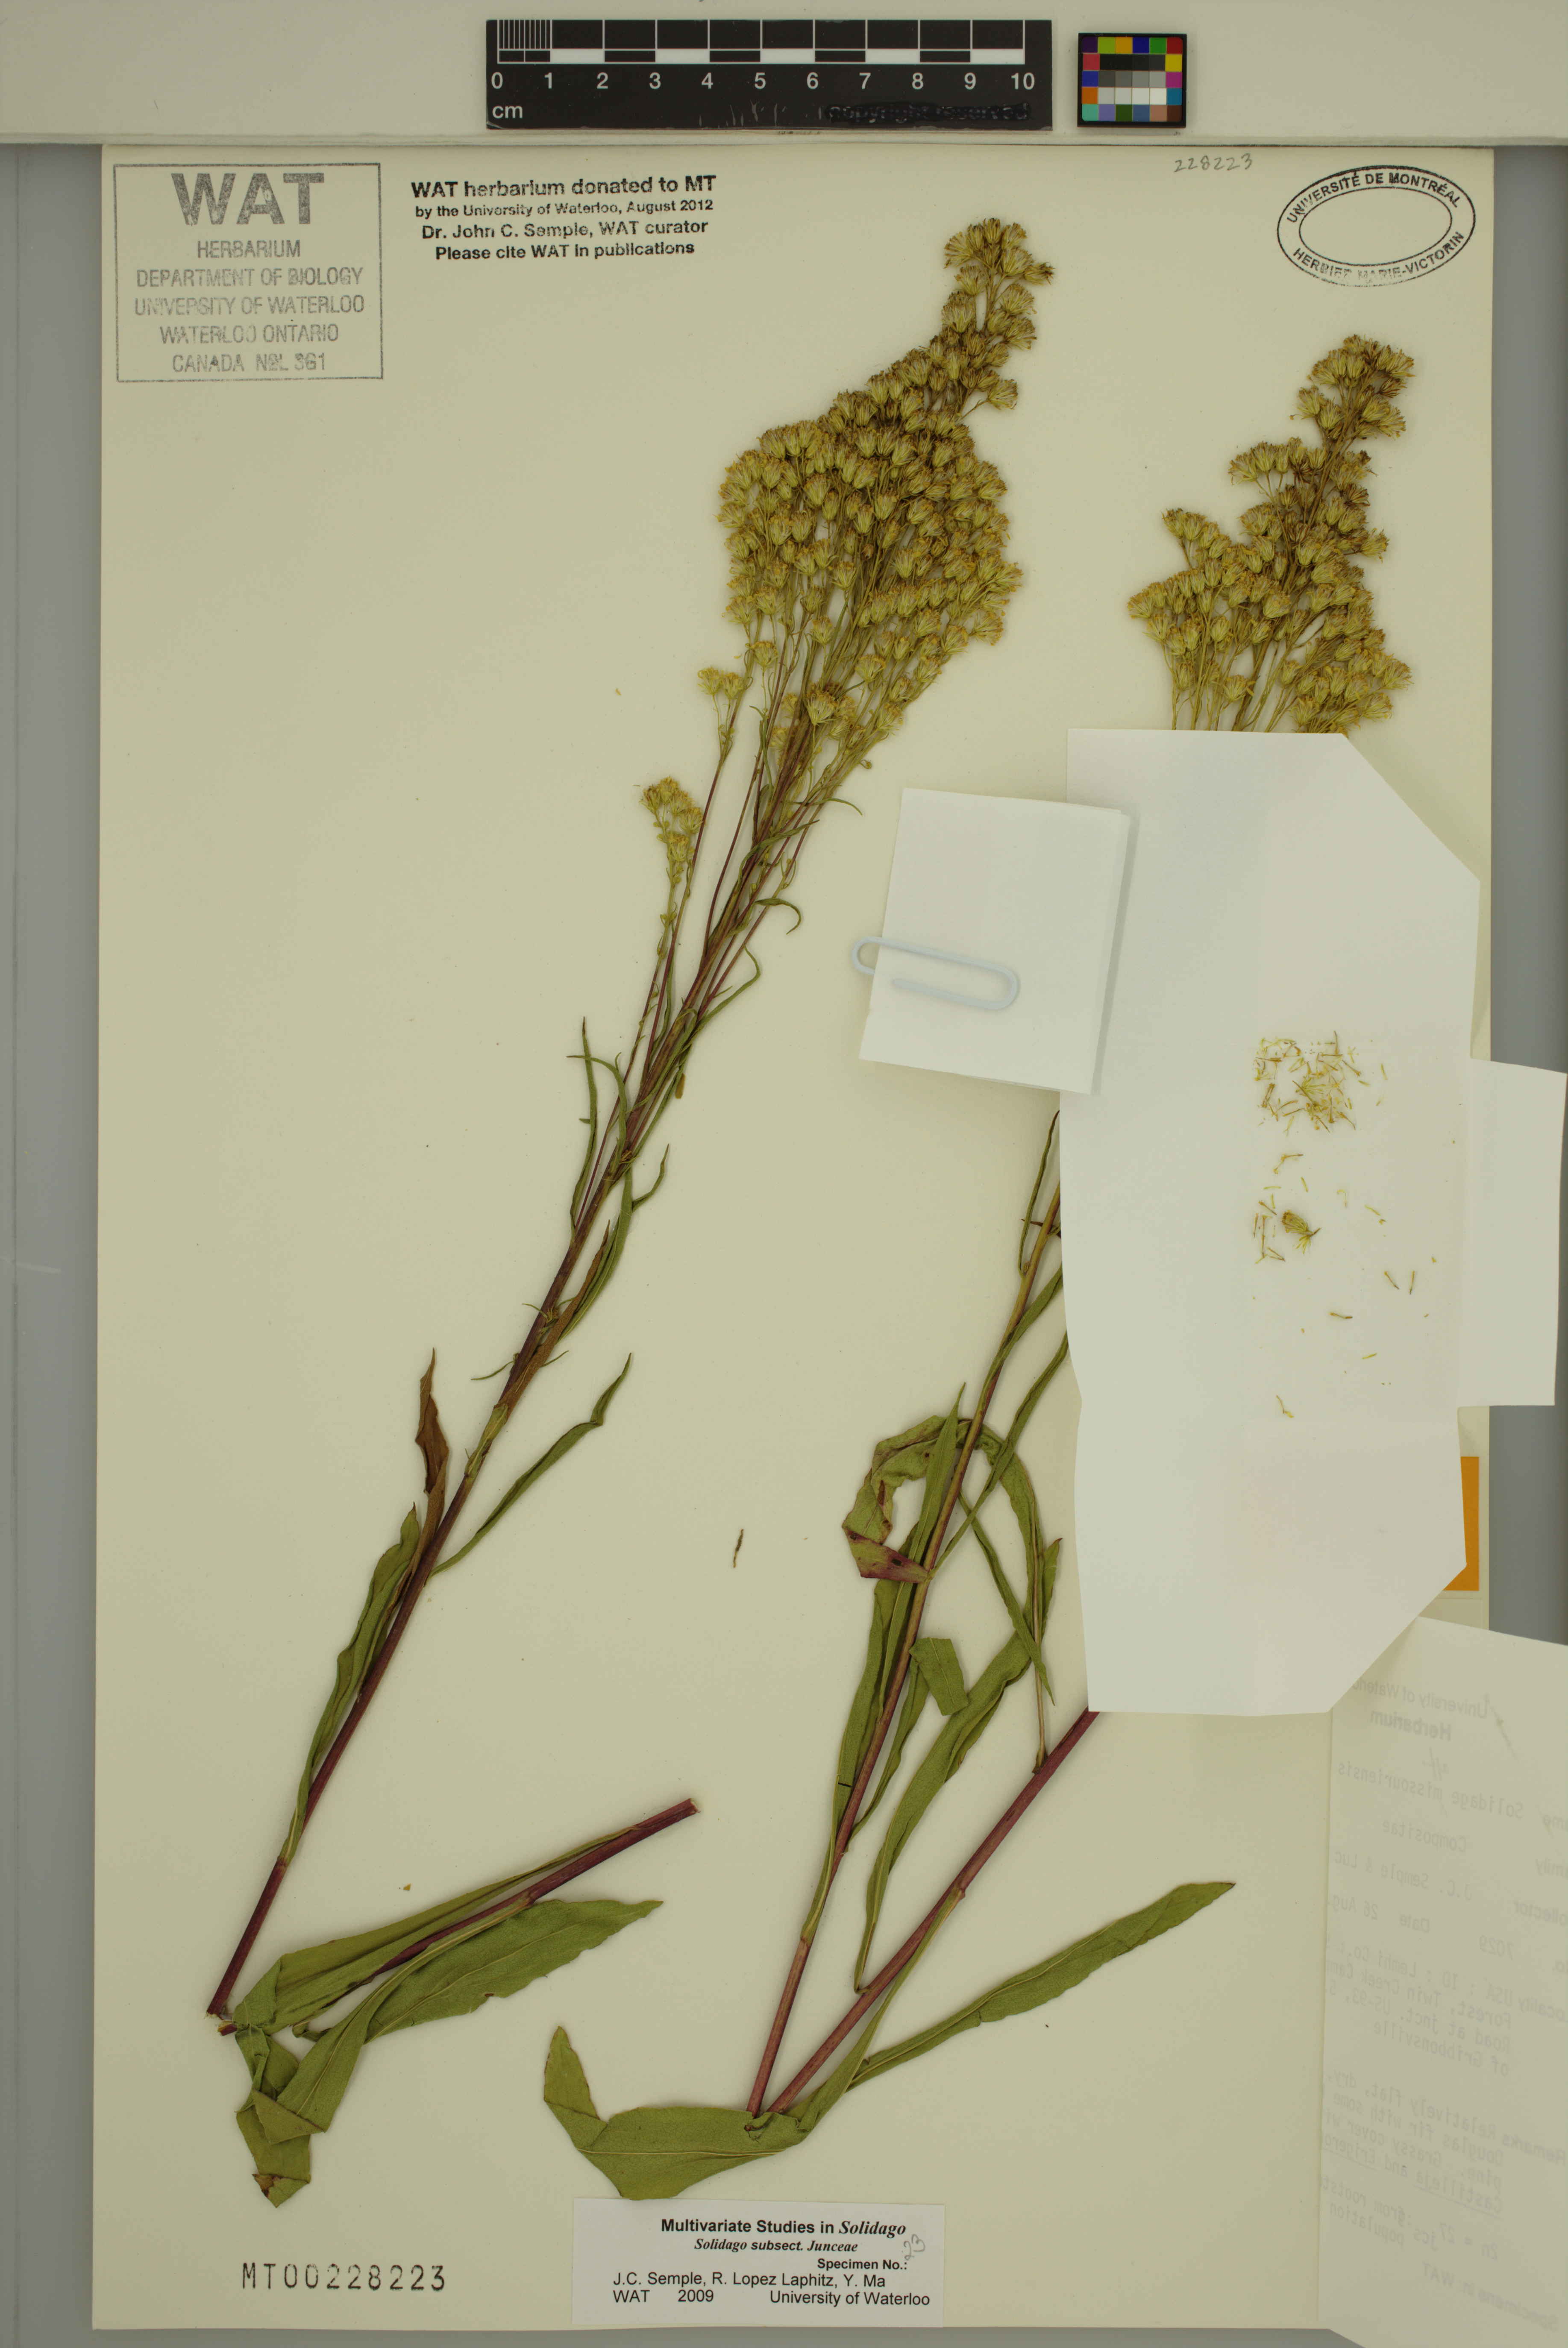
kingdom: Plantae
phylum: Tracheophyta
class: Magnoliopsida
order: Asterales
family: Asteraceae
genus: Solidago
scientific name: Solidago missouriensis
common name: Prairie goldenrod
